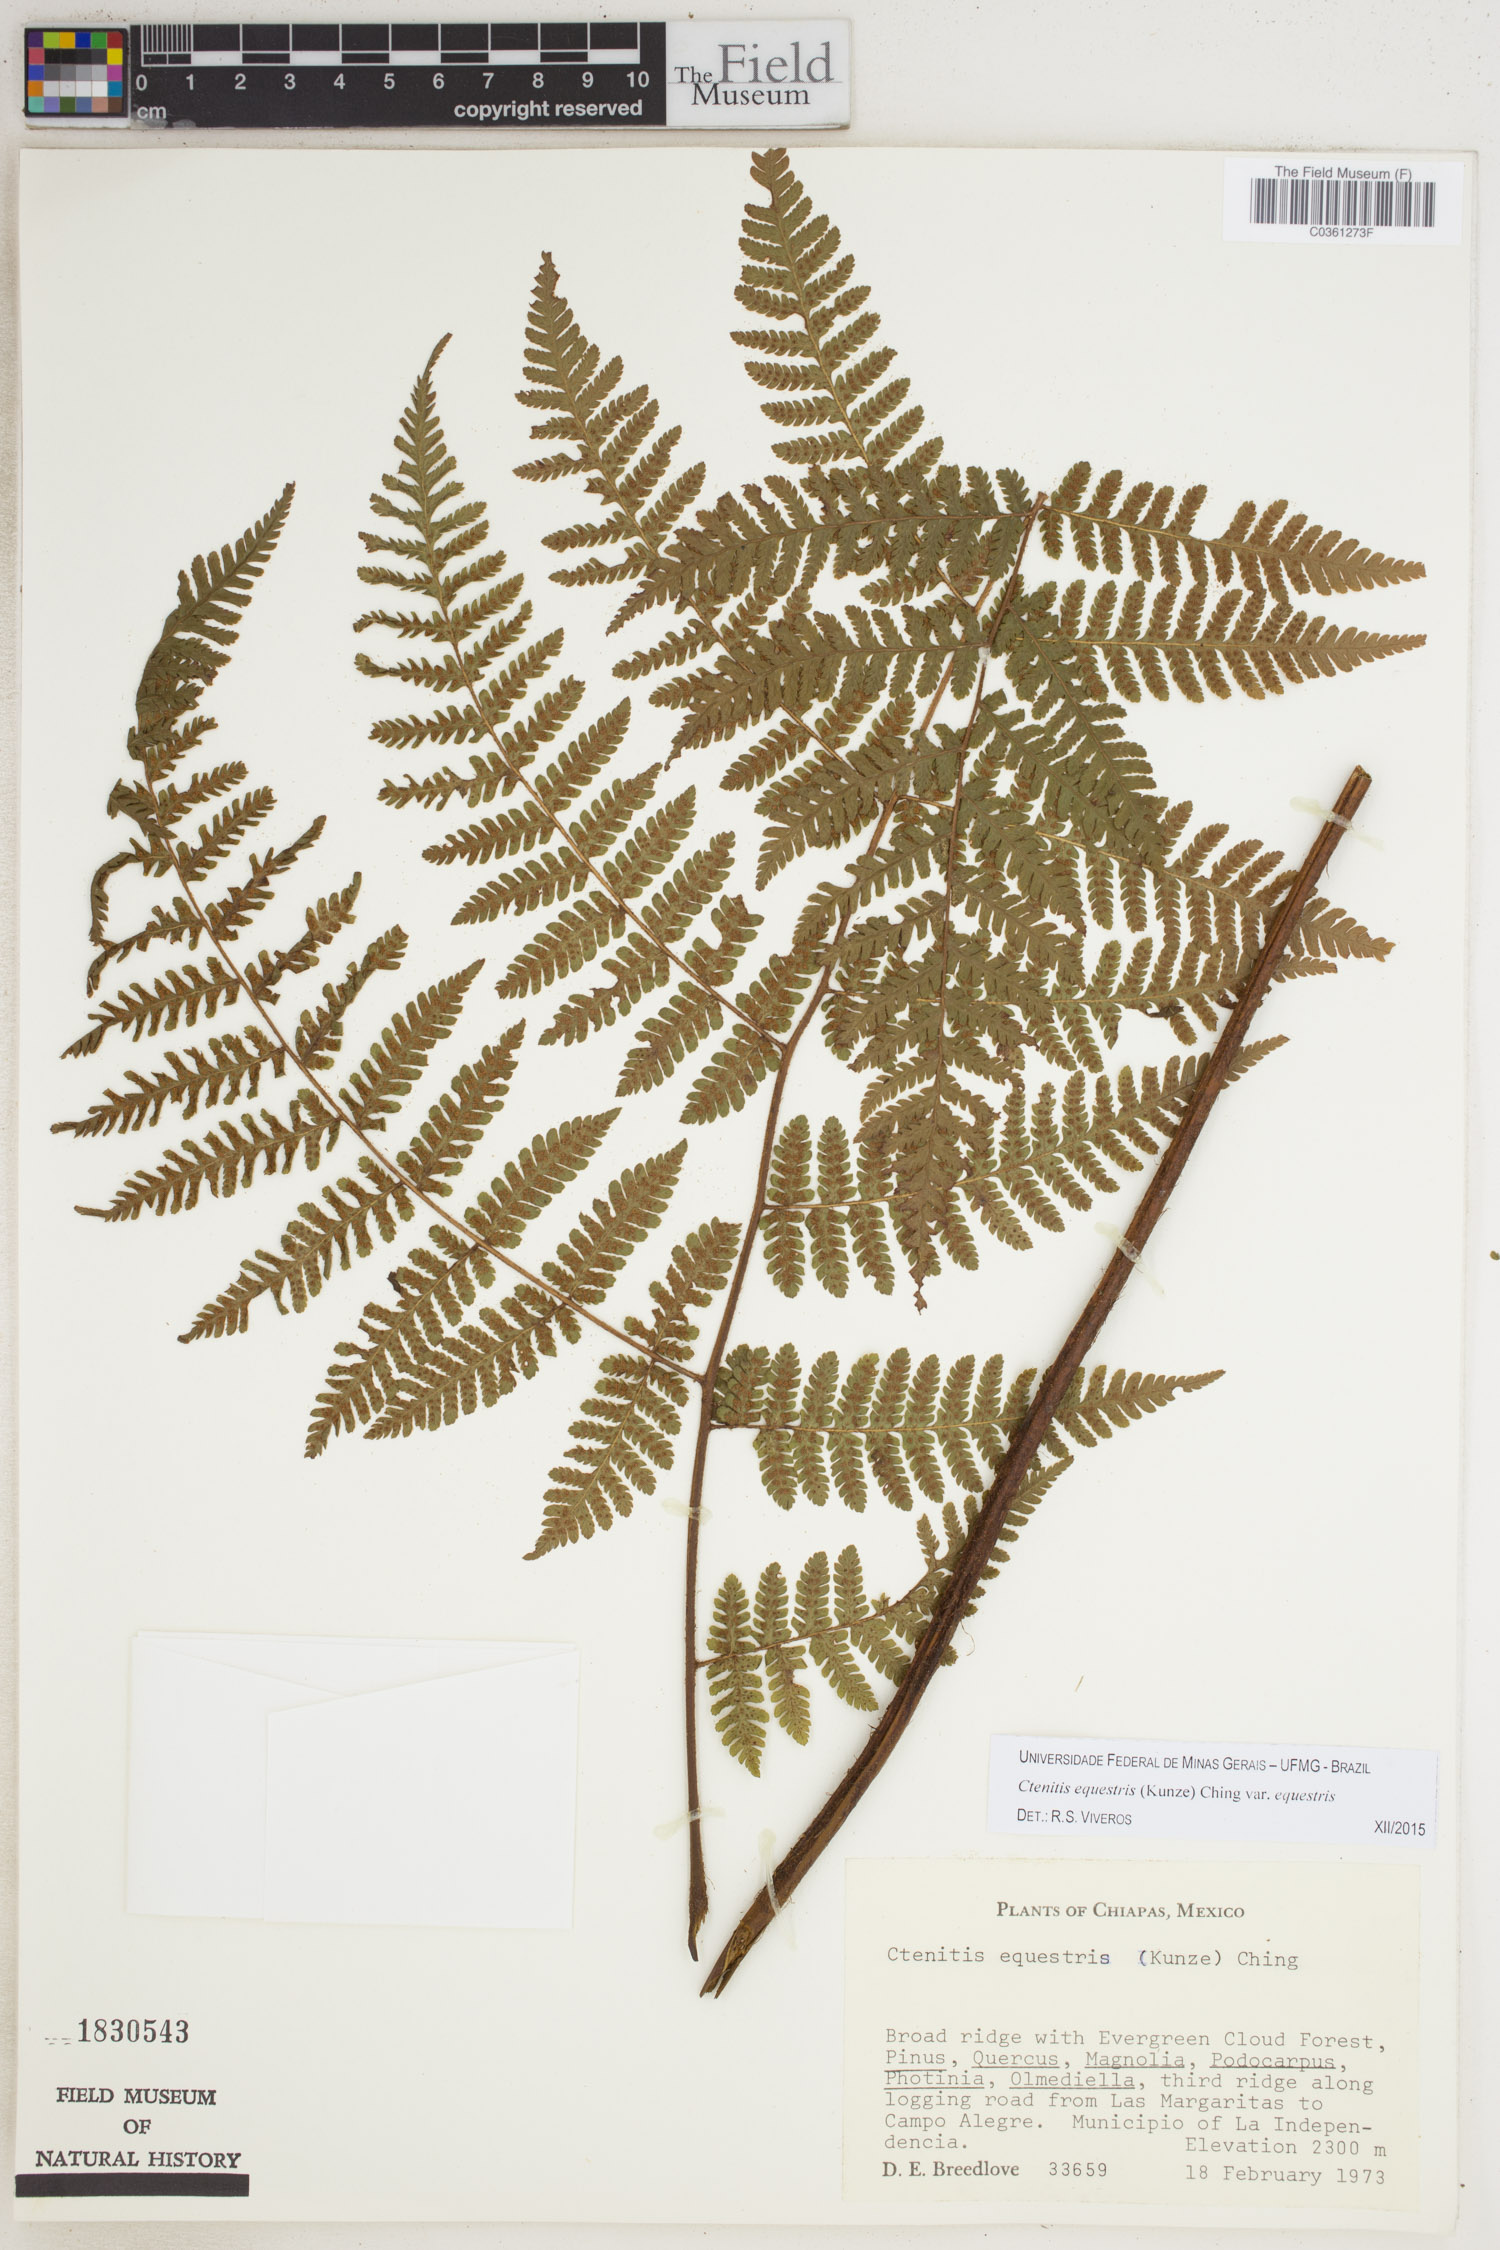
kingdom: Plantae
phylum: Tracheophyta
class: Polypodiopsida
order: Polypodiales
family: Dryopteridaceae
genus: Ctenitis
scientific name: Ctenitis equestris
